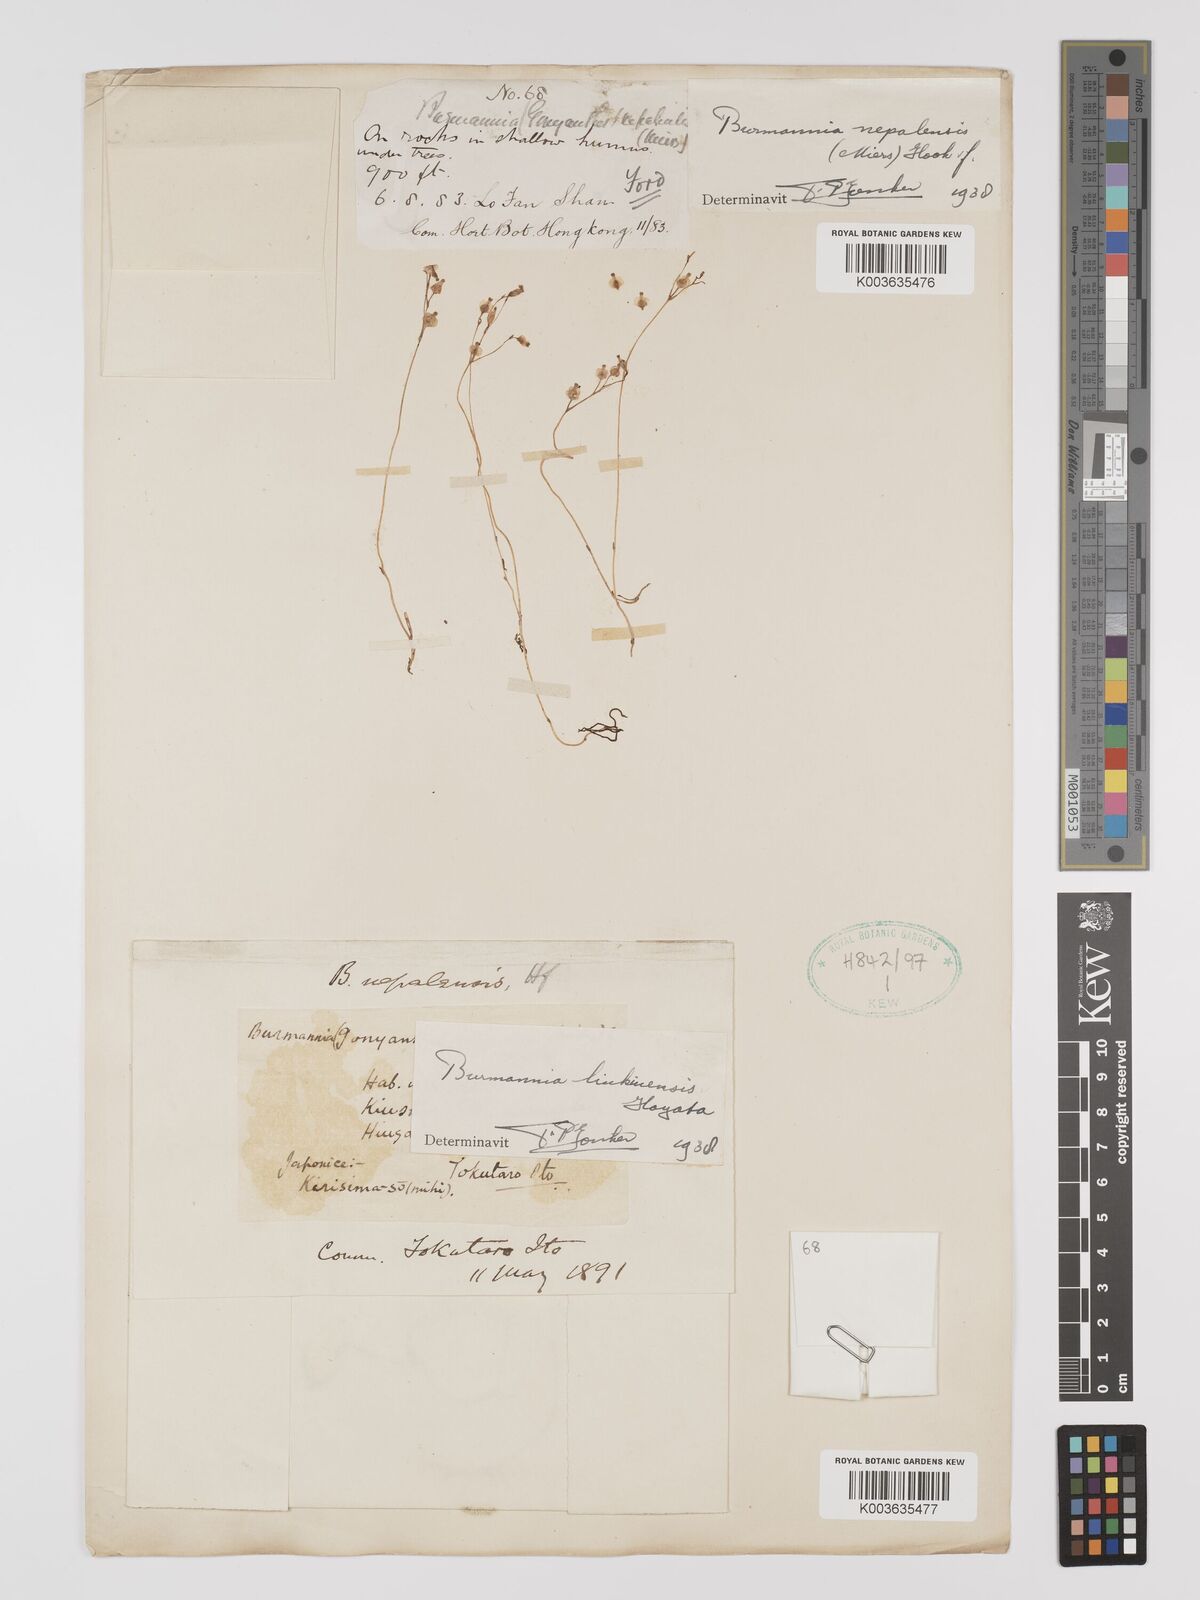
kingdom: Plantae
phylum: Tracheophyta
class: Liliopsida
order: Dioscoreales
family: Burmanniaceae
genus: Burmannia
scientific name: Burmannia nepalensis
